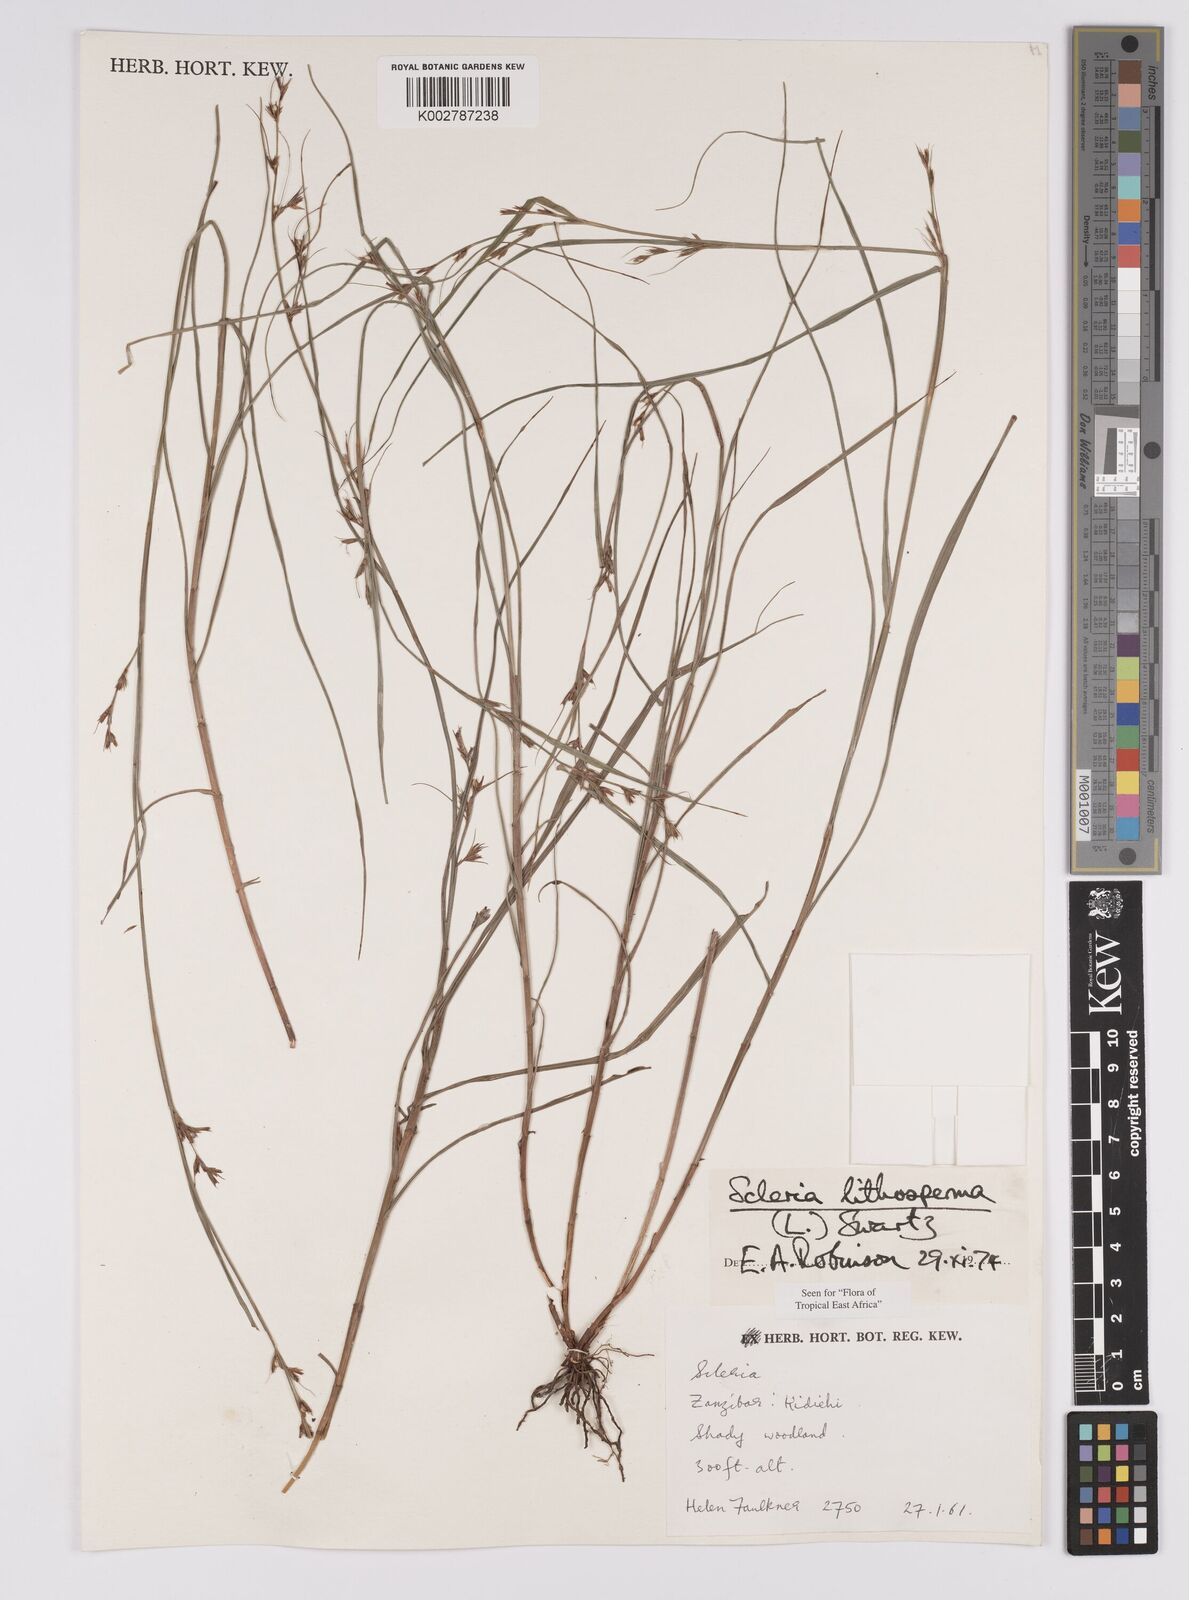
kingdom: Plantae
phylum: Tracheophyta
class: Liliopsida
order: Poales
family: Cyperaceae
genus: Scleria
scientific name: Scleria lithosperma
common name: Florida keys nut-rush
